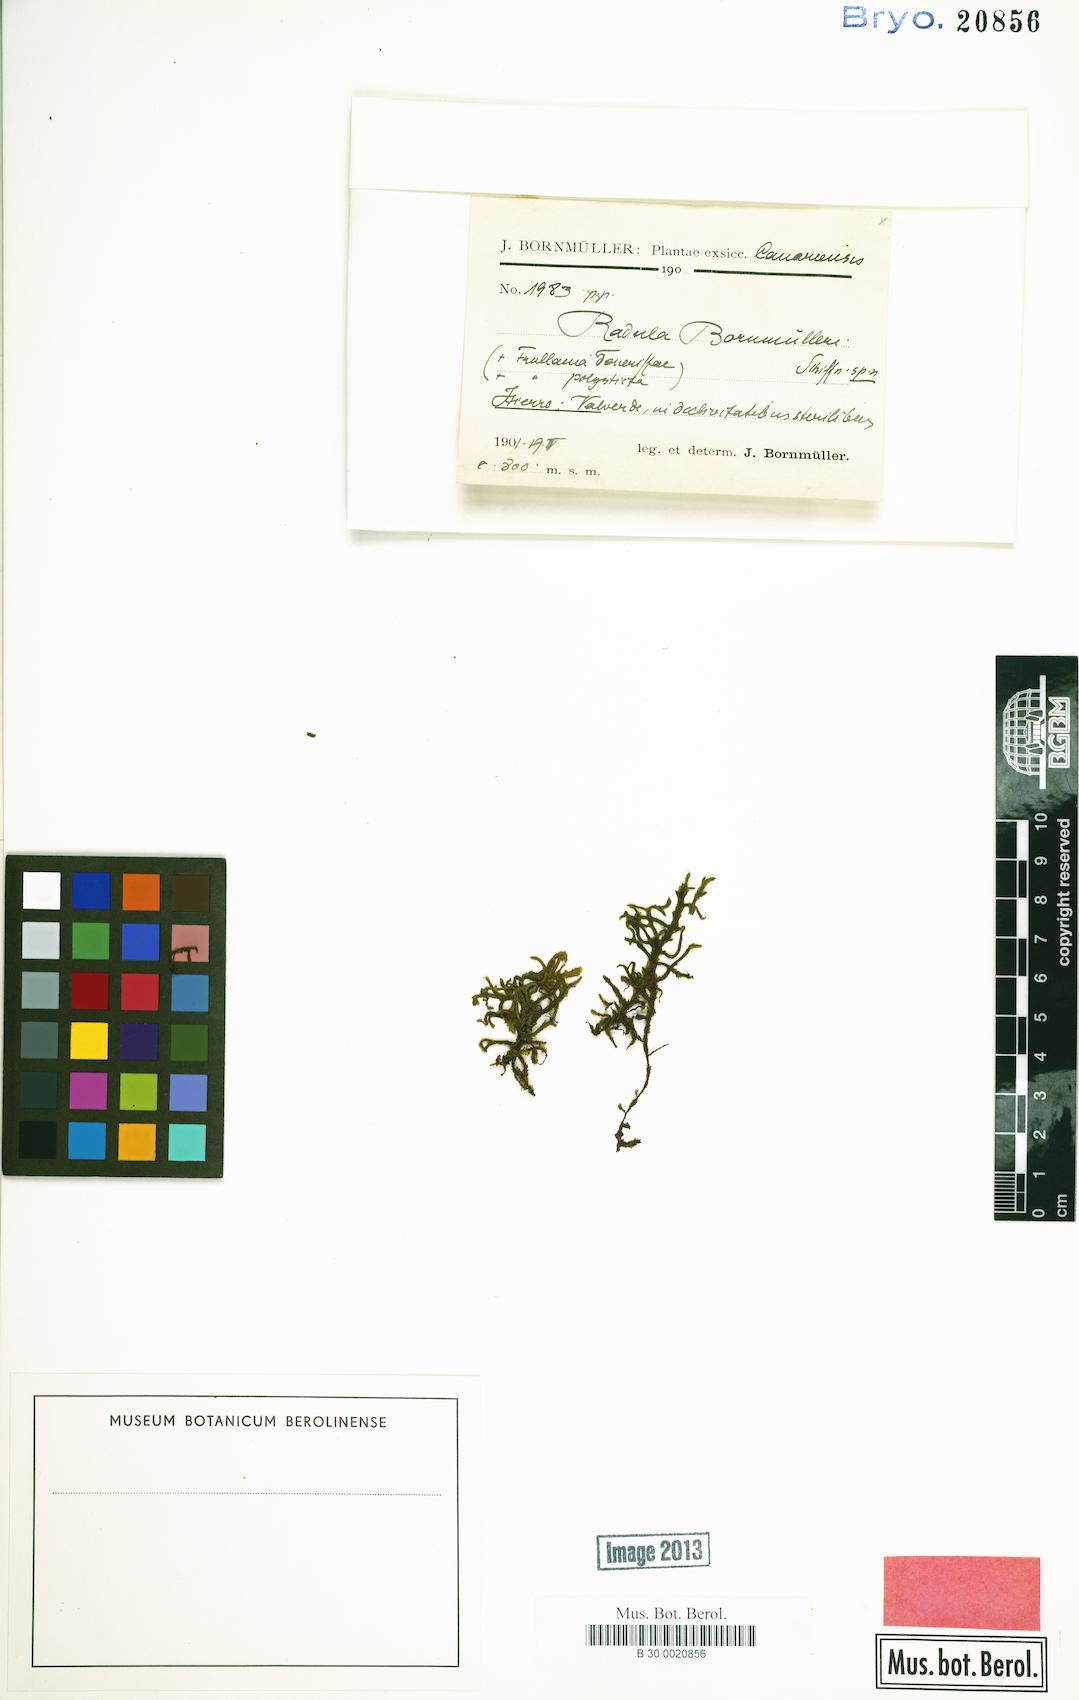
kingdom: Plantae
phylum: Marchantiophyta
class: Jungermanniopsida
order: Porellales
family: Radulaceae
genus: Radula
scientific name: Radula lindenbergiana
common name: Lindenberg's scalewort
